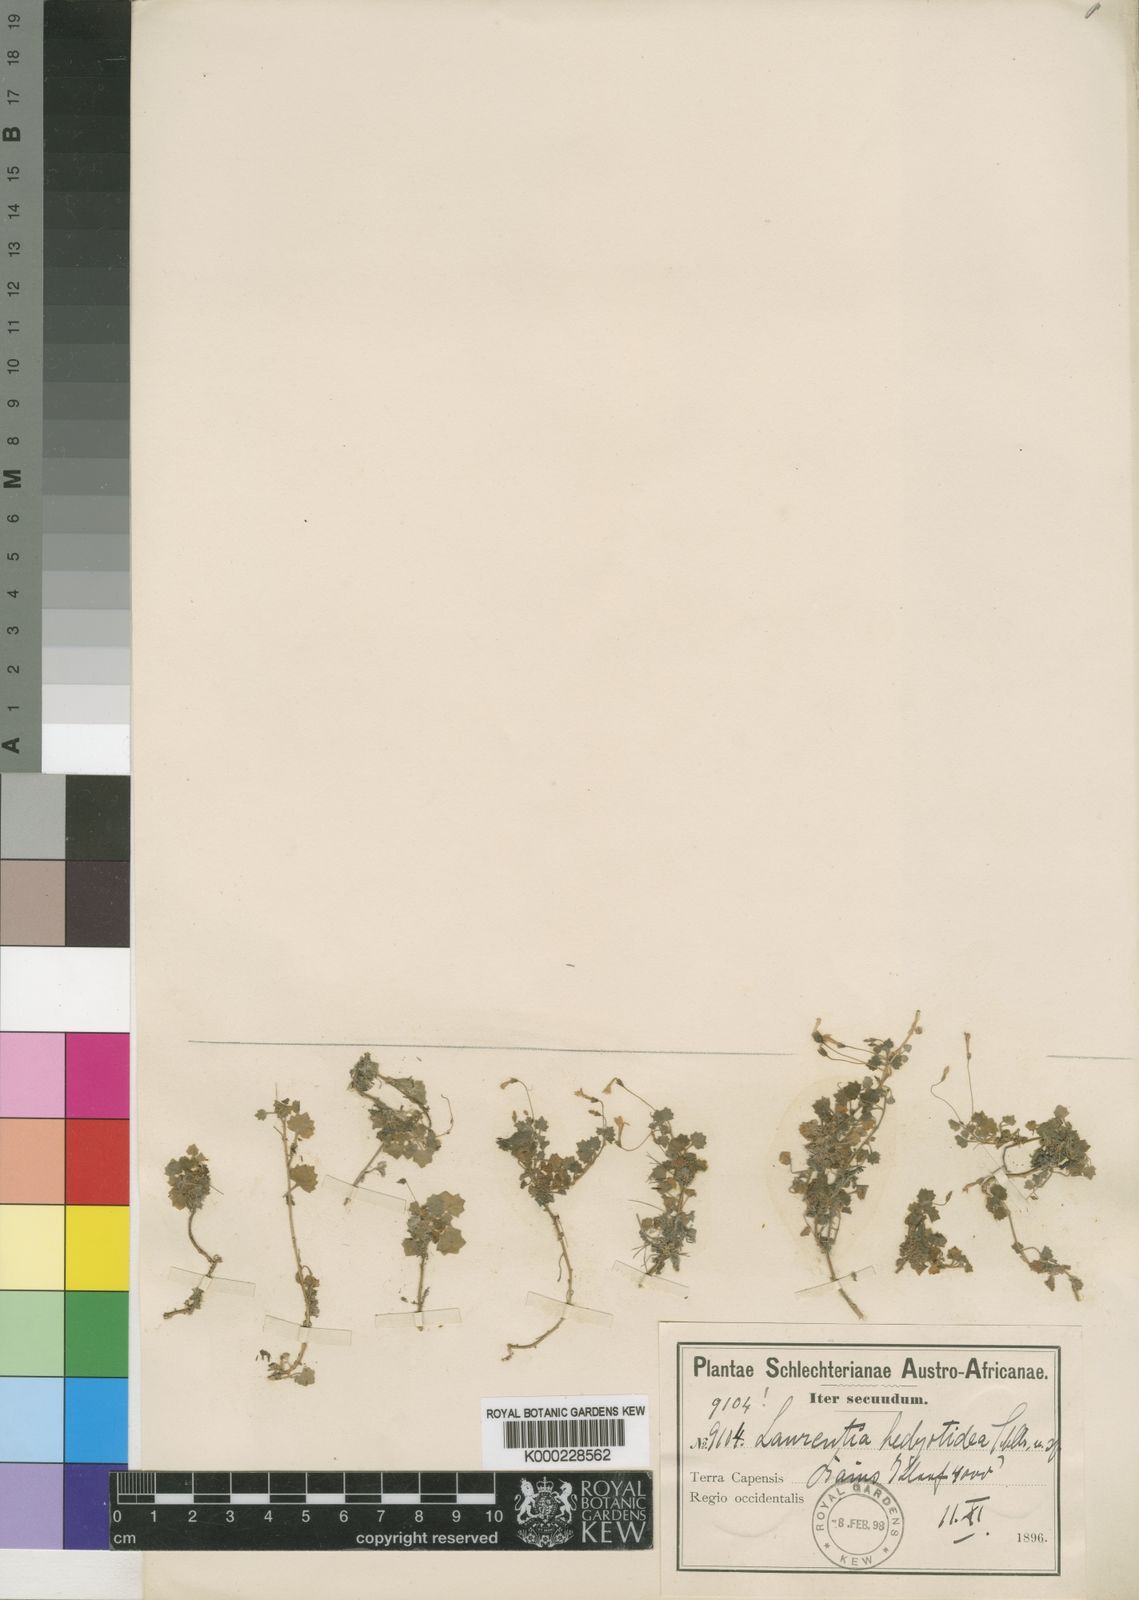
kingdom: Plantae
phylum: Tracheophyta
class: Magnoliopsida
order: Asterales
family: Campanulaceae
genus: Wimmerella
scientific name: Wimmerella hedyotidea
